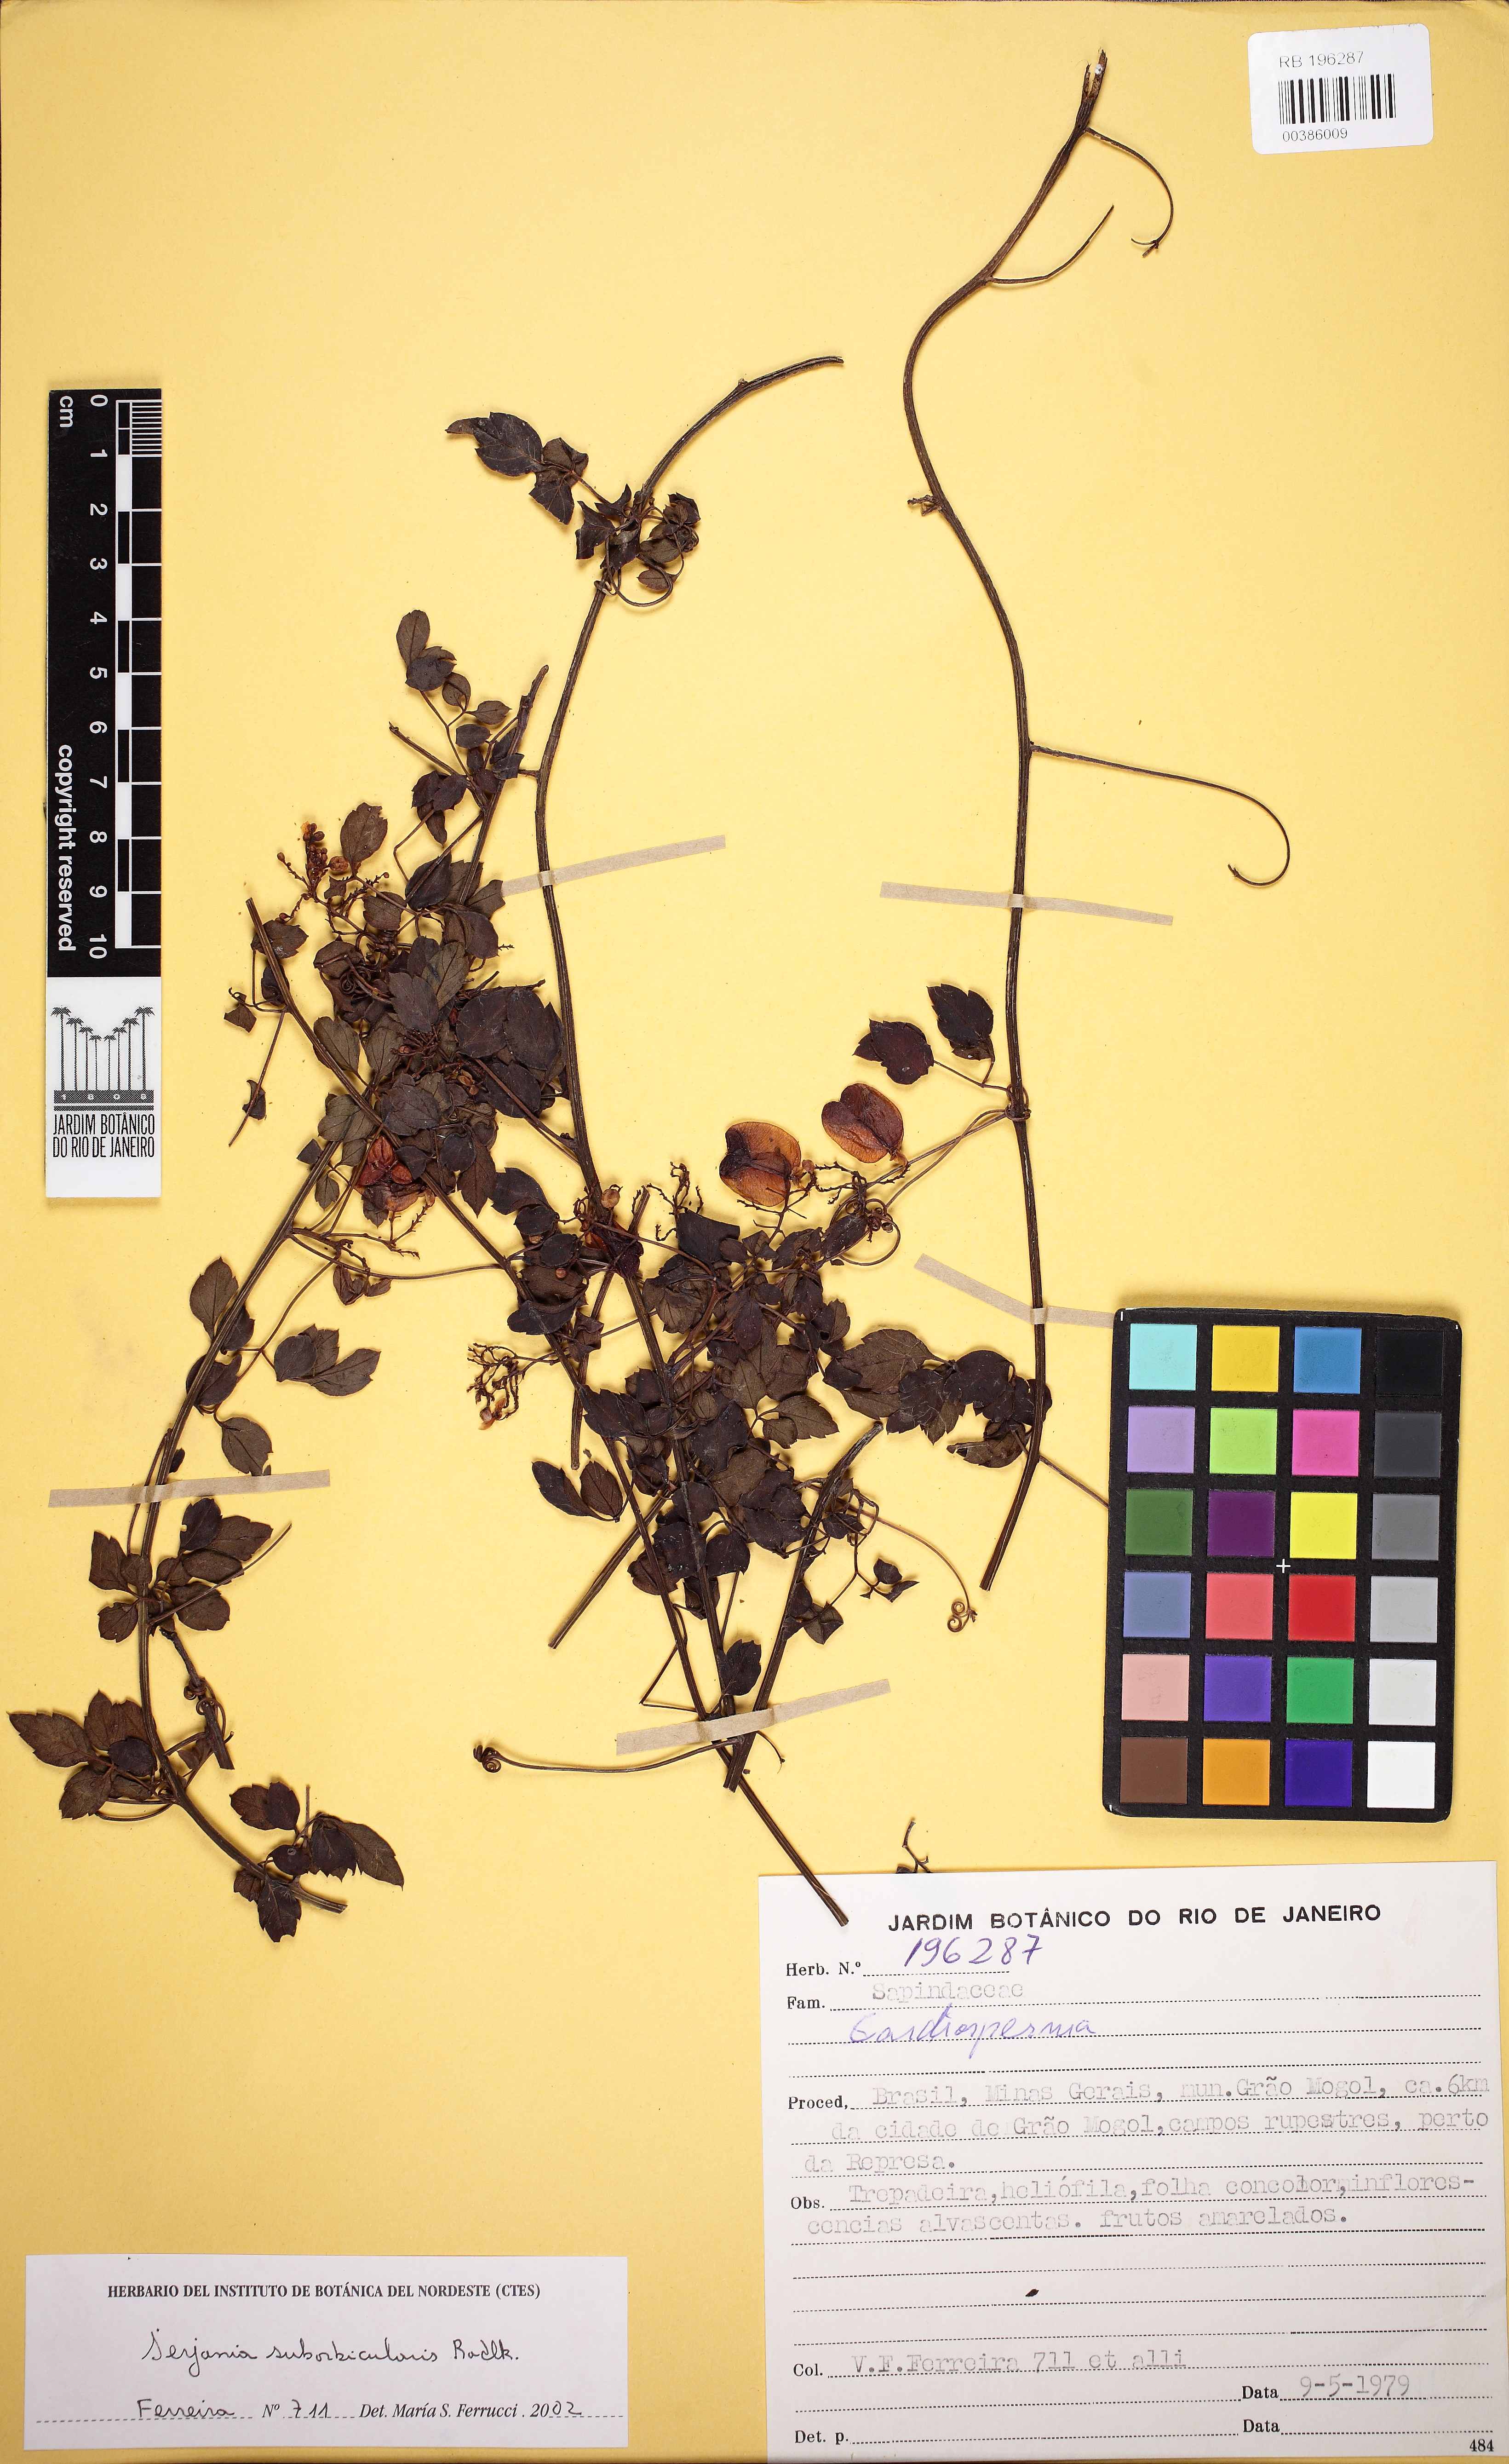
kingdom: Plantae
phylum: Tracheophyta
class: Magnoliopsida
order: Sapindales
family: Sapindaceae
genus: Serjania
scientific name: Serjania suborbicularis
